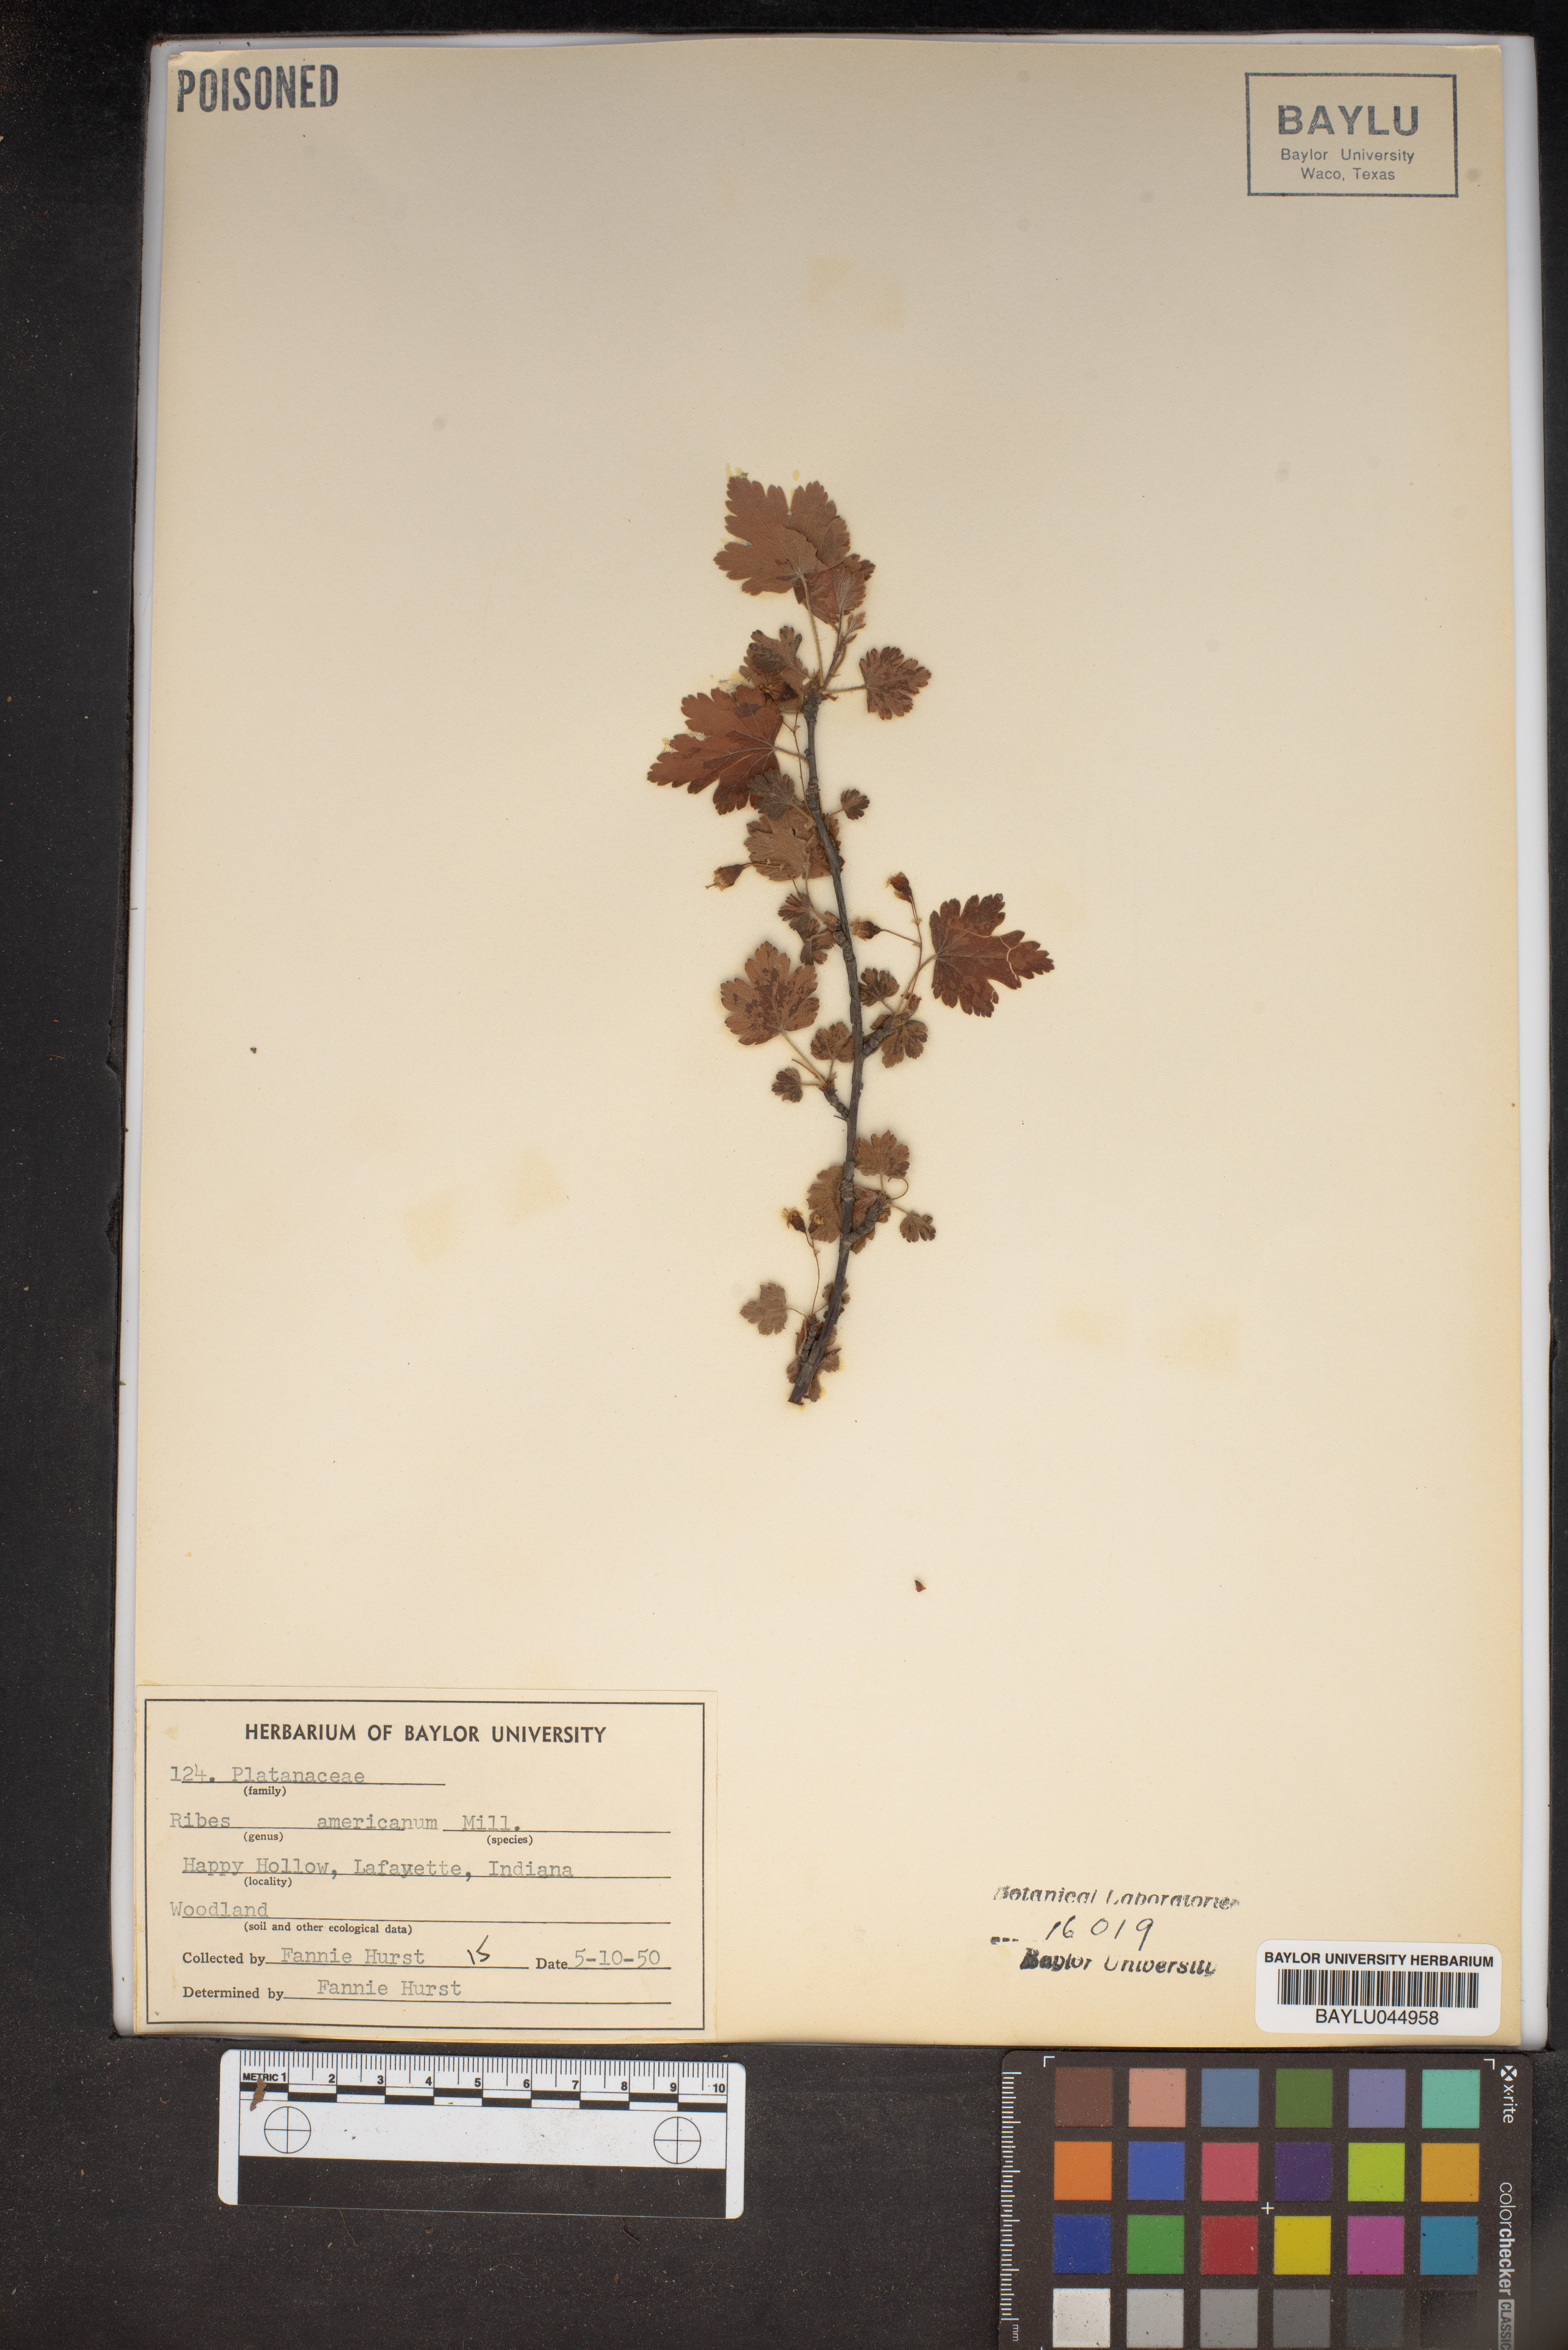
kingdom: Plantae
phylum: Tracheophyta
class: Magnoliopsida
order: Saxifragales
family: Grossulariaceae
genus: Ribes
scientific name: Ribes americanum
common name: American black currant
